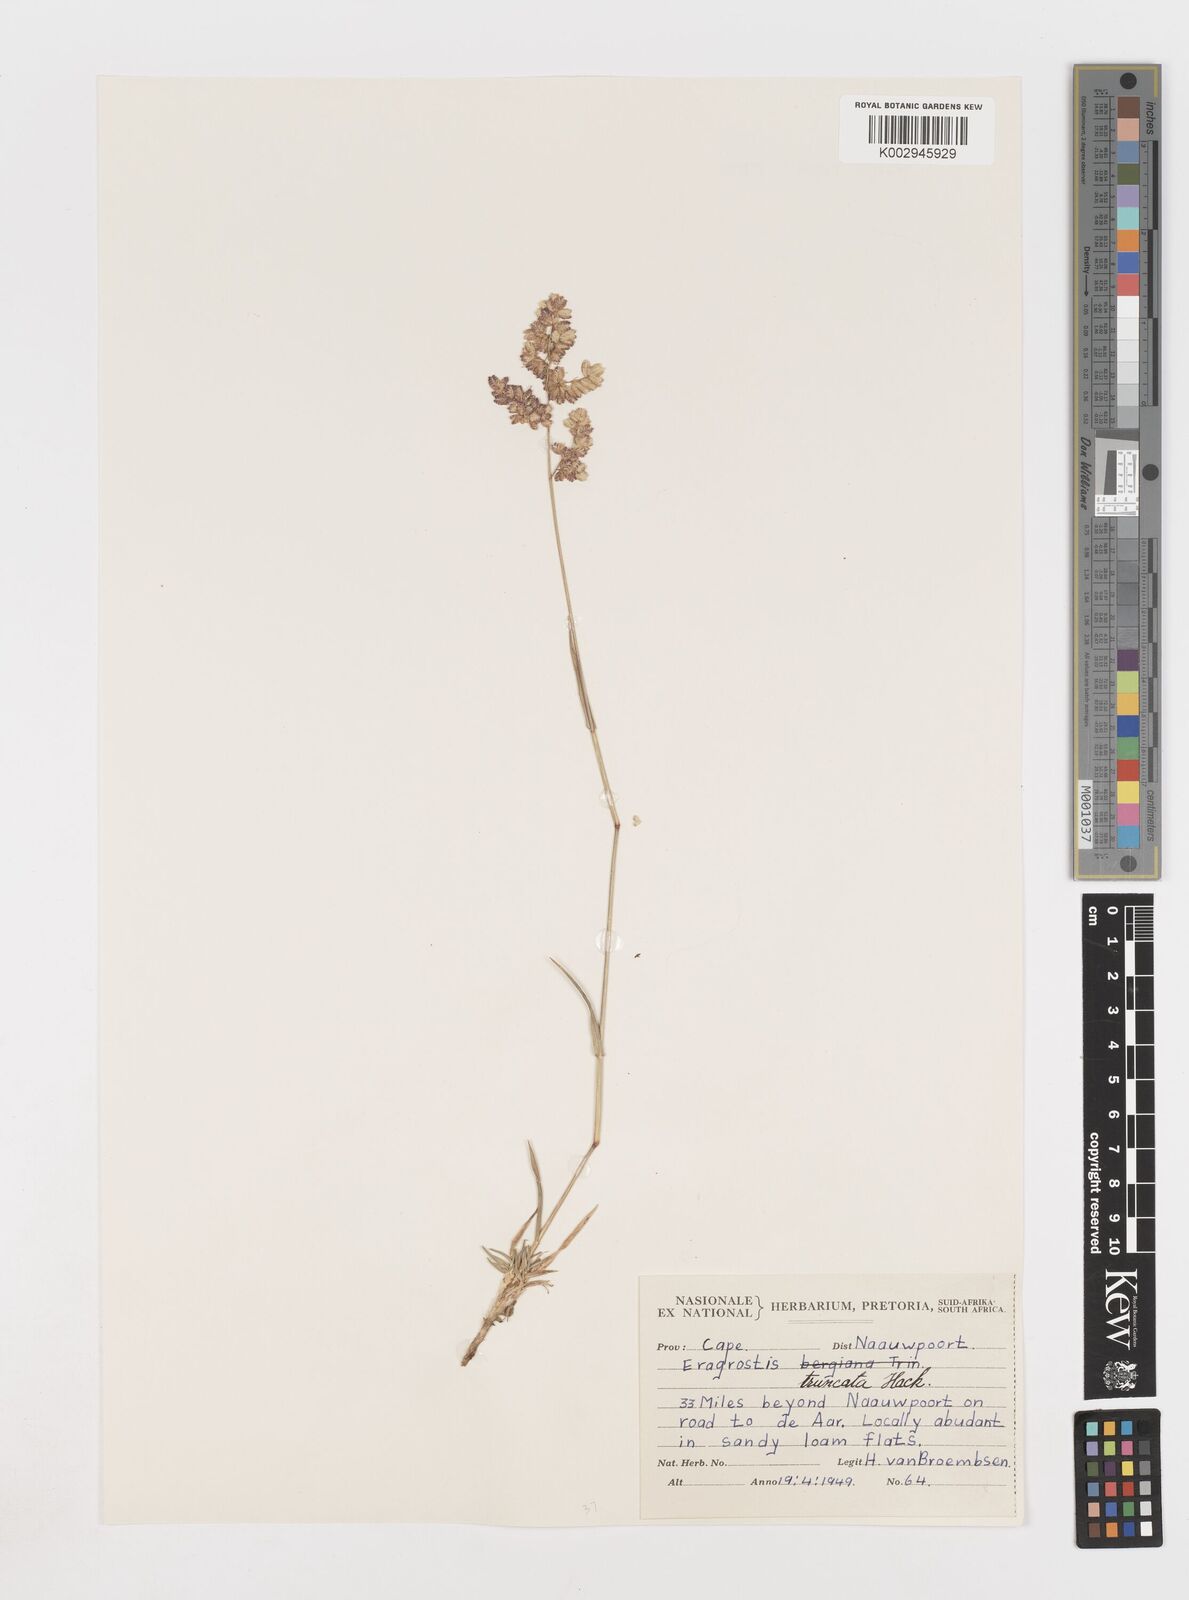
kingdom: Plantae
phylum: Tracheophyta
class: Liliopsida
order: Poales
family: Poaceae
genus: Eragrostis
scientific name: Eragrostis truncata
